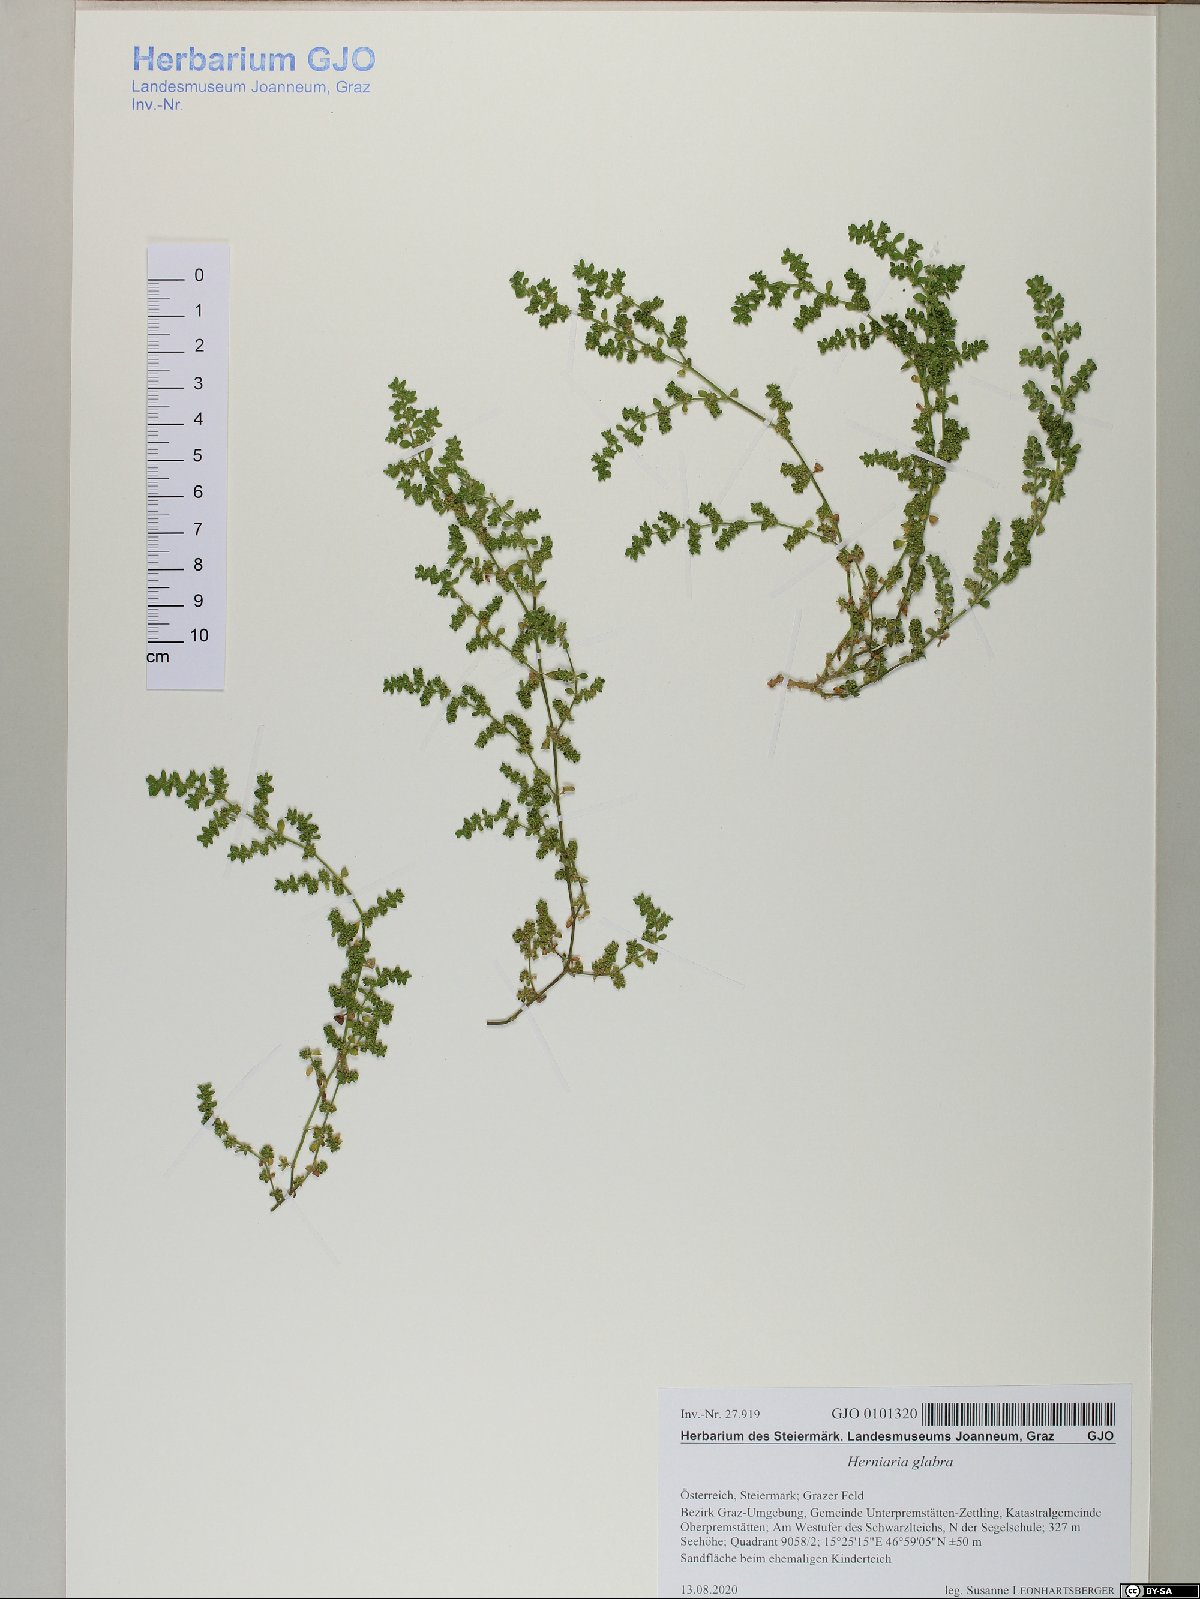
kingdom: Plantae
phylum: Tracheophyta
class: Magnoliopsida
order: Caryophyllales
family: Caryophyllaceae
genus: Herniaria
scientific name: Herniaria glabra
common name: Smooth rupturewort
